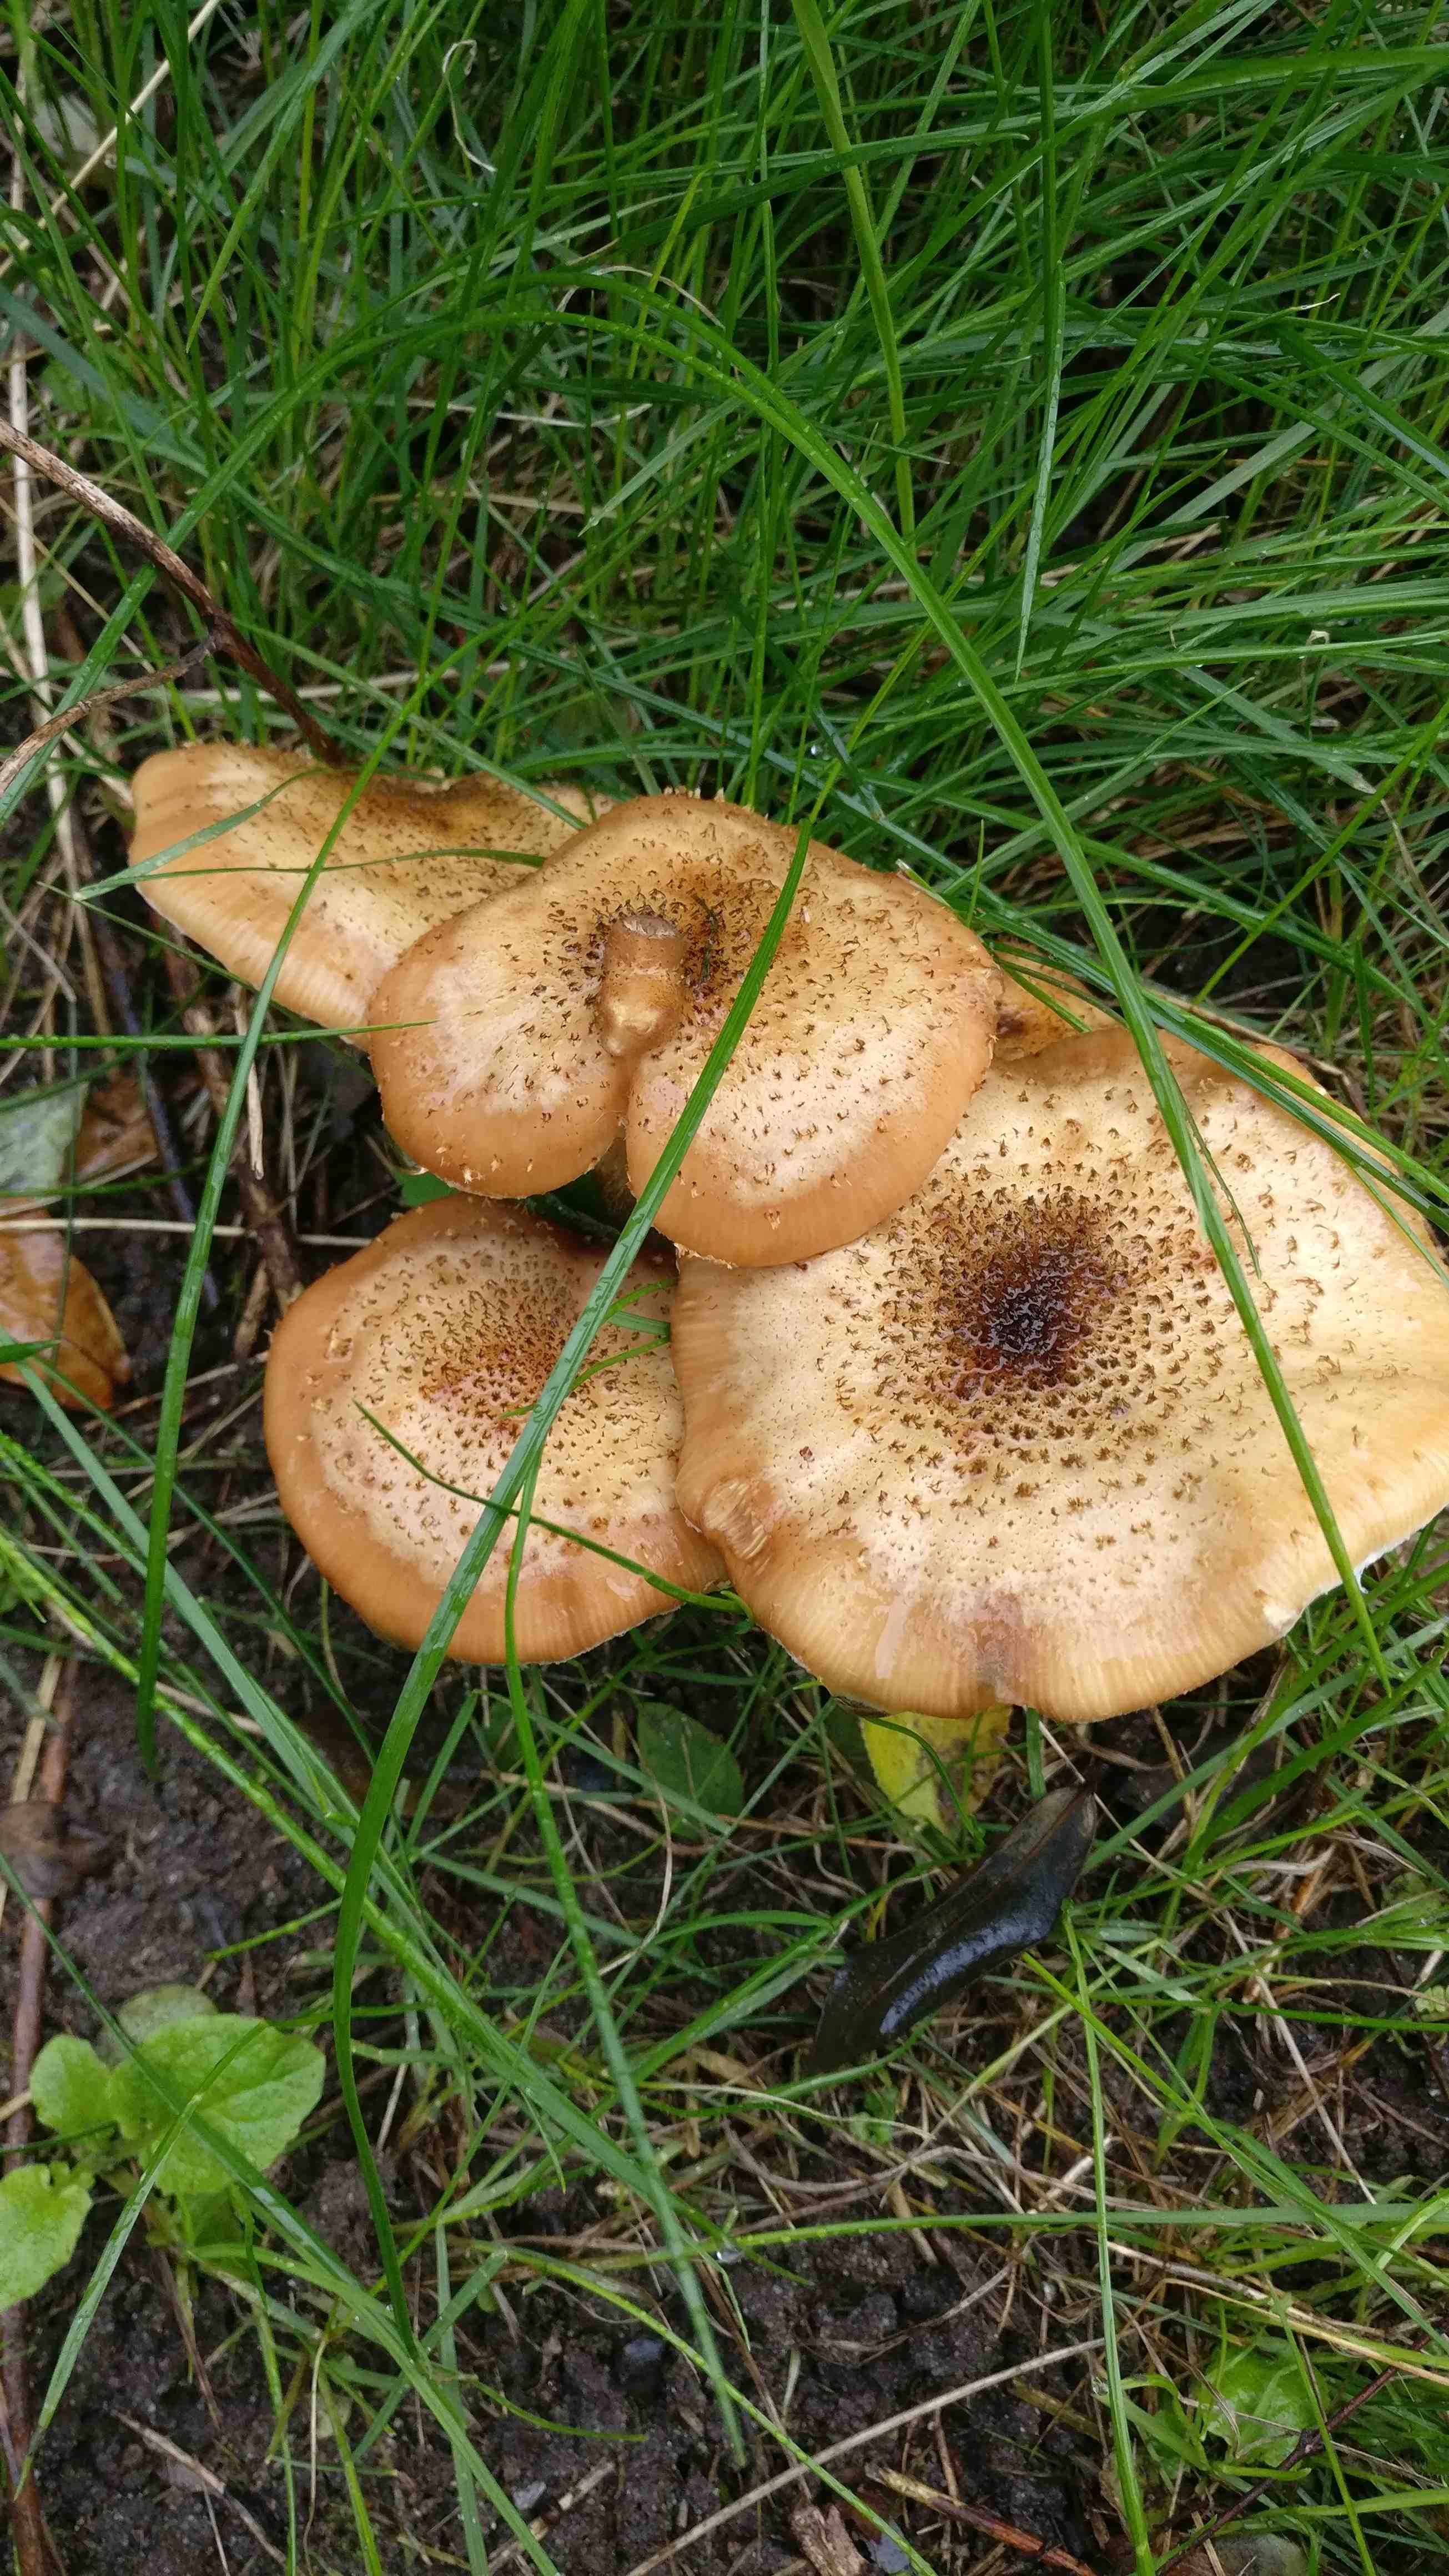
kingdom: Fungi
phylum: Basidiomycota
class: Agaricomycetes
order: Agaricales
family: Physalacriaceae
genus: Armillaria
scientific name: Armillaria lutea
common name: køllestokket honningsvamp
